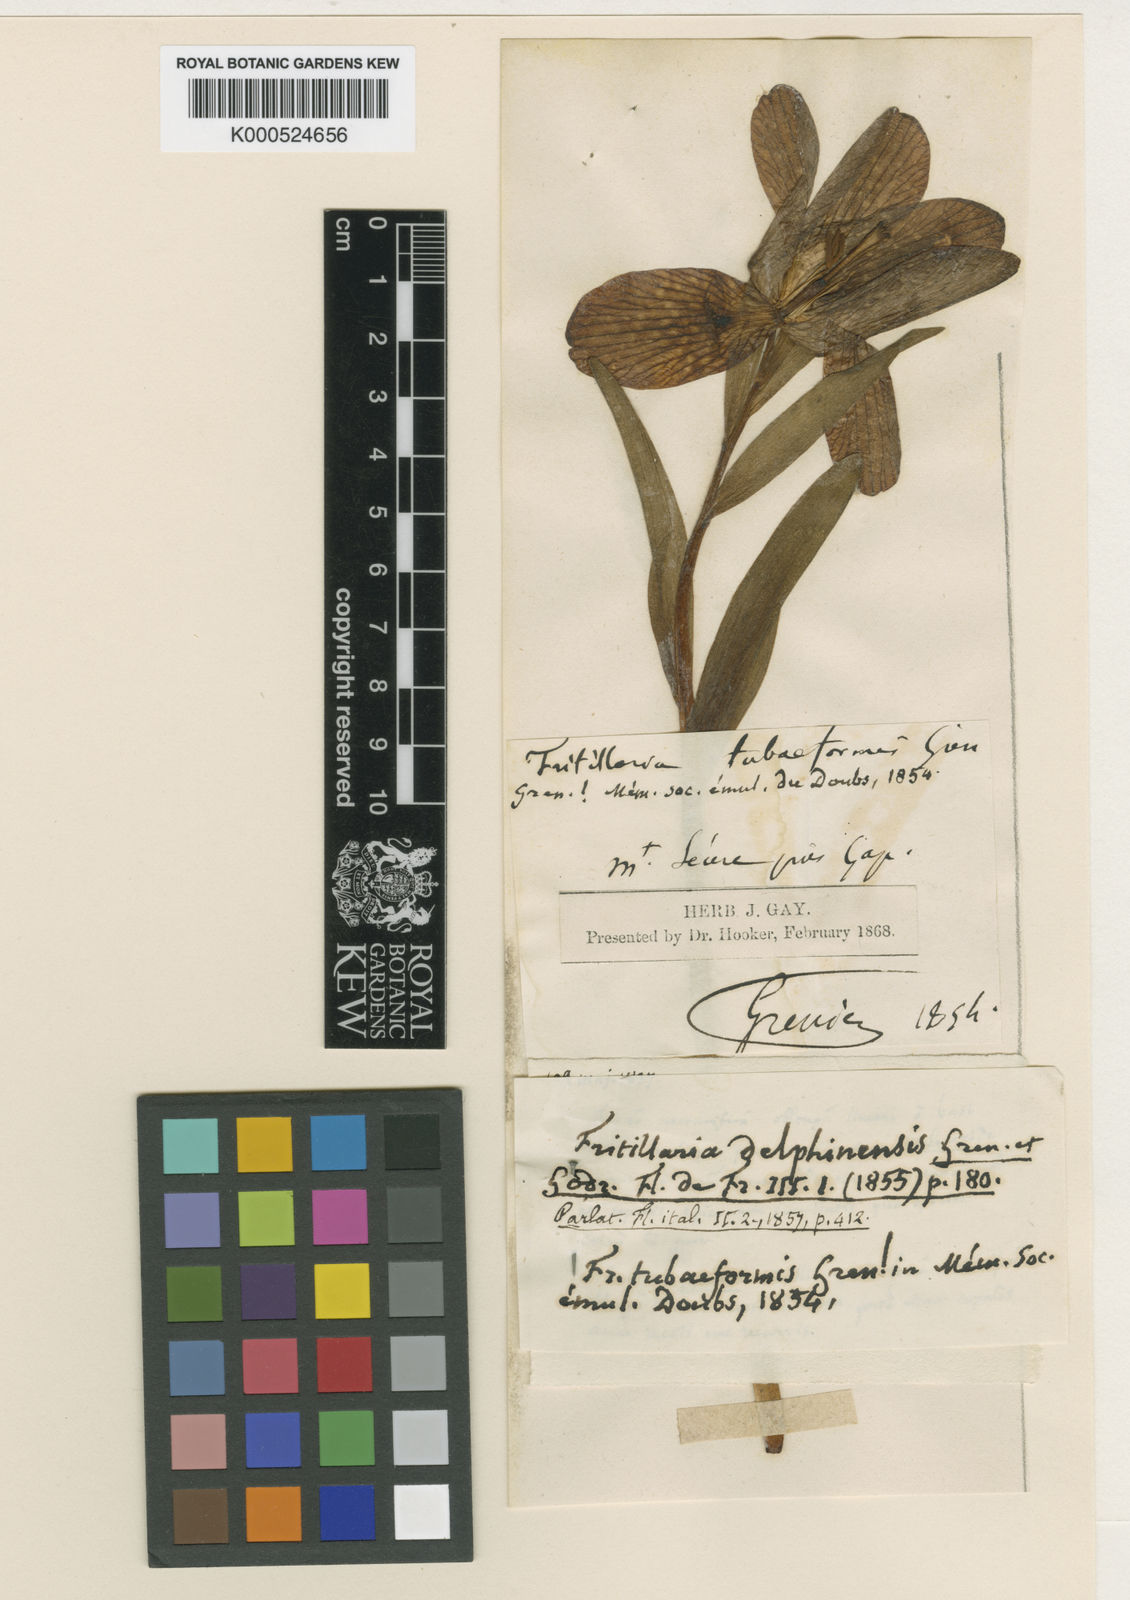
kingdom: Plantae
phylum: Tracheophyta
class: Liliopsida
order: Liliales
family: Liliaceae
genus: Fritillaria
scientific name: Fritillaria tubaeformis
